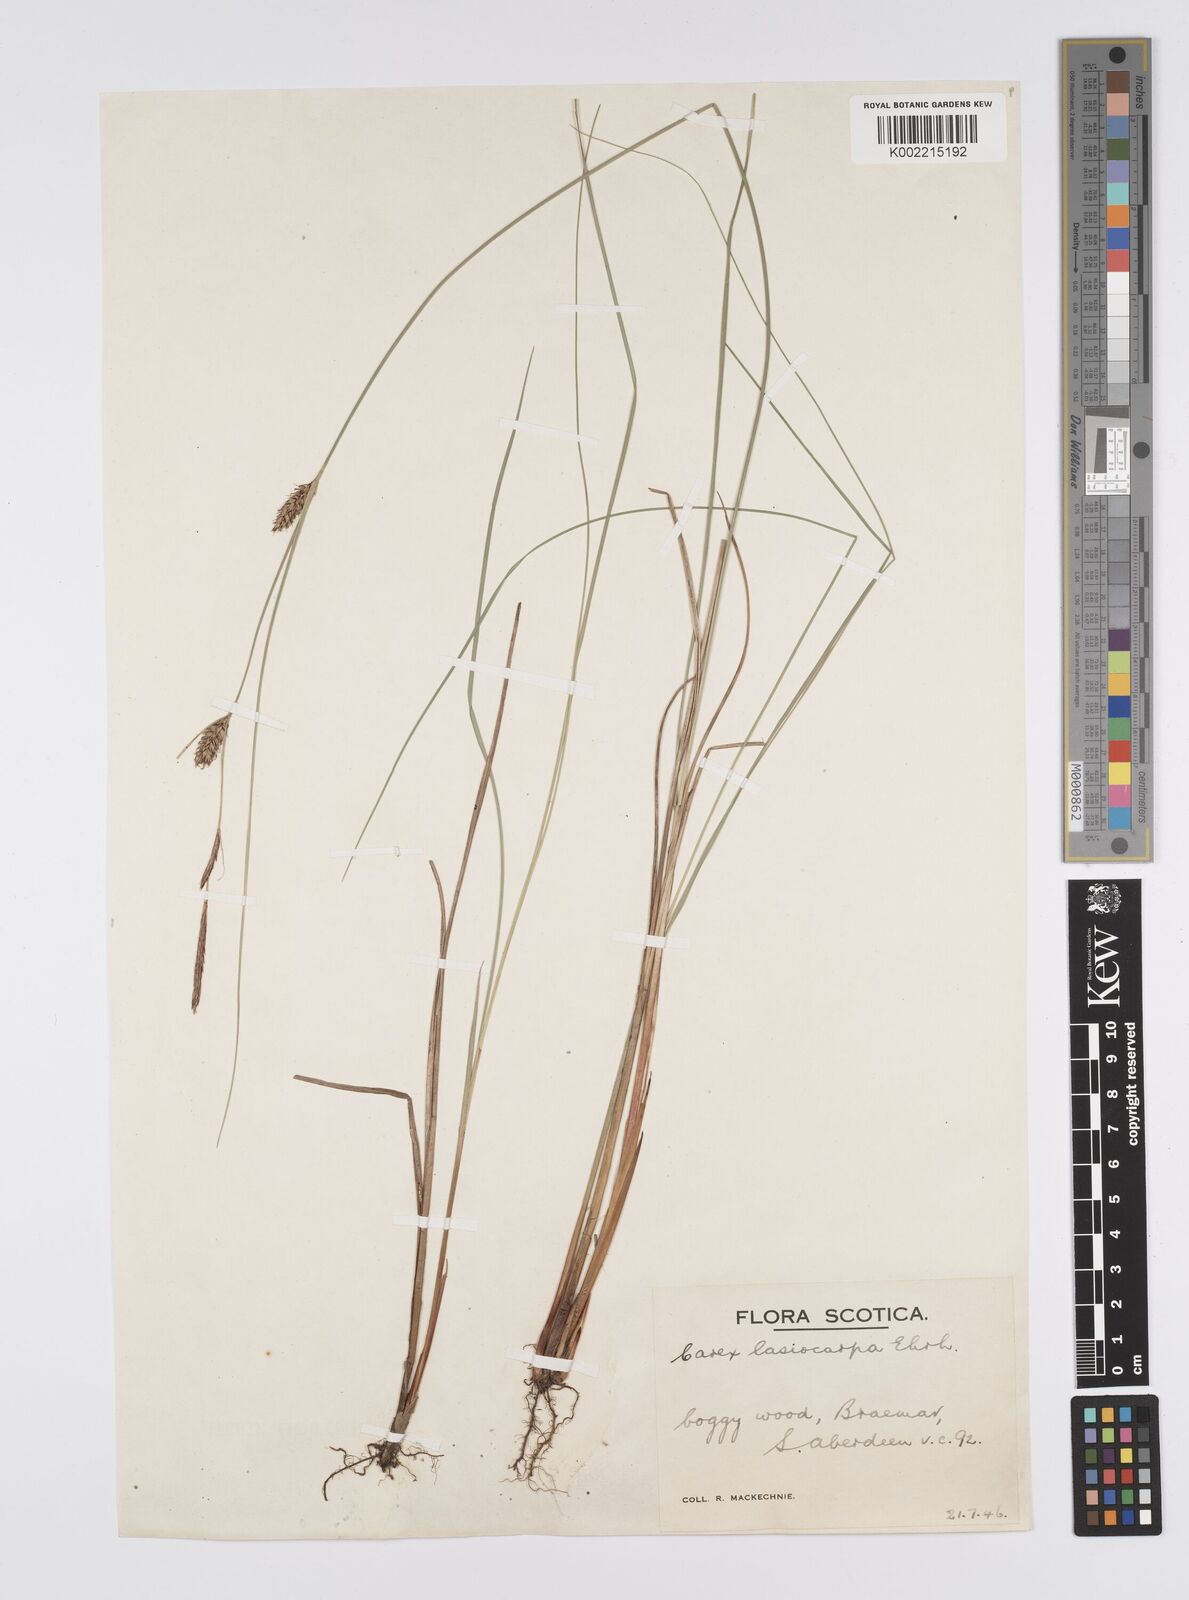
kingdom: Plantae
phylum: Tracheophyta
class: Liliopsida
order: Poales
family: Cyperaceae
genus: Carex
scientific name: Carex lasiocarpa
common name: Slender sedge
